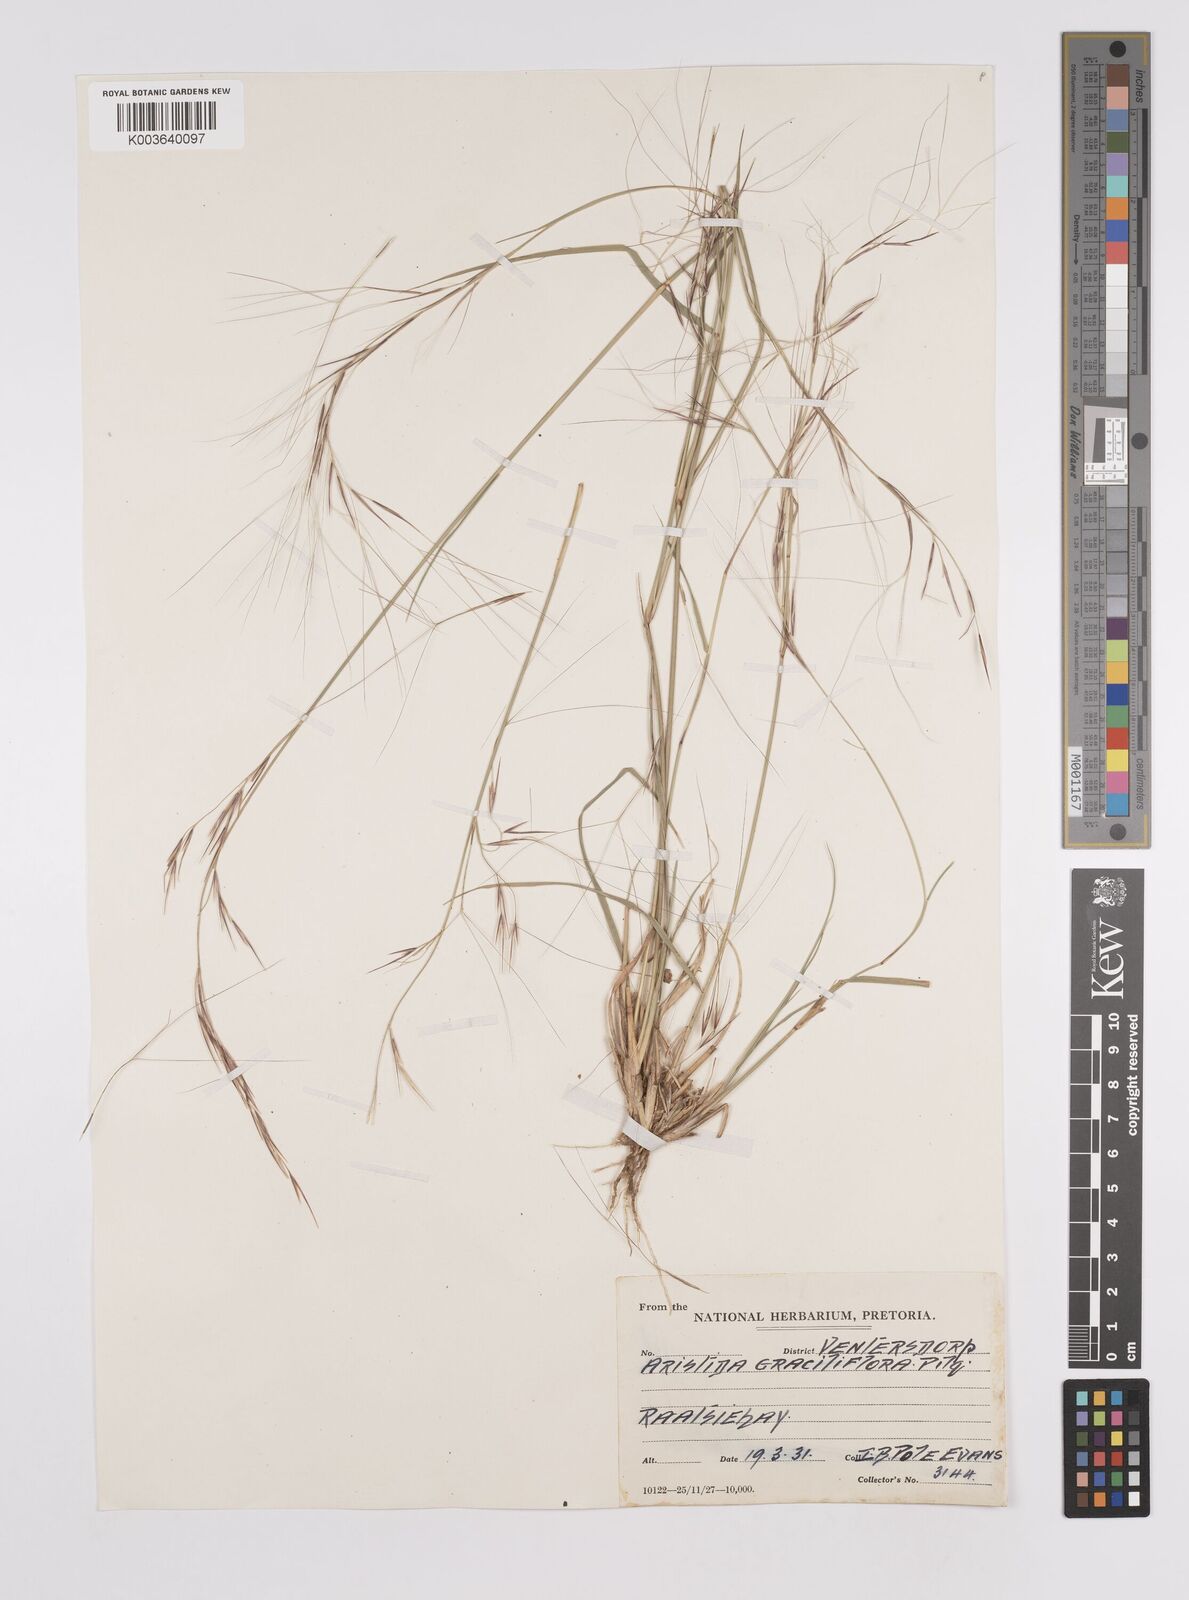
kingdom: Plantae
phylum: Tracheophyta
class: Liliopsida
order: Poales
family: Poaceae
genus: Aristida
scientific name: Aristida stipitata
